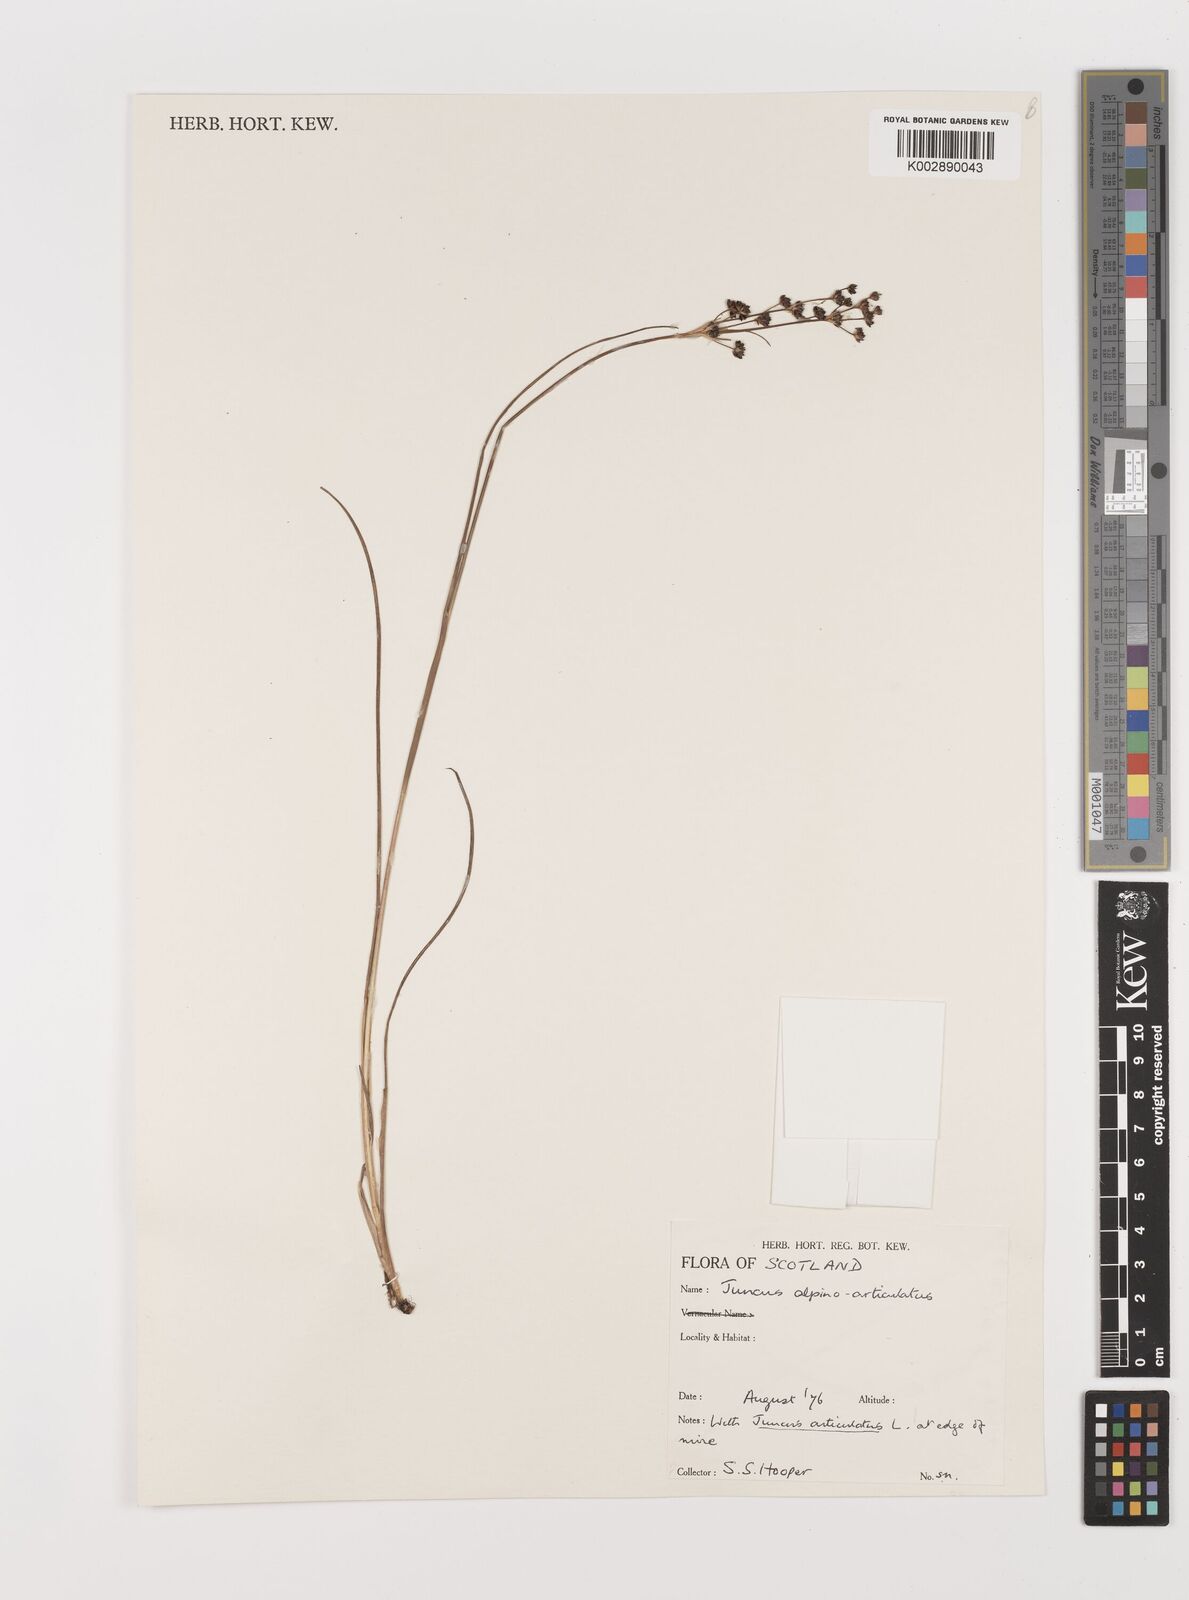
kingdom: Plantae
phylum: Tracheophyta
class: Liliopsida
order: Poales
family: Juncaceae
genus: Juncus
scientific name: Juncus articulatus
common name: Jointed rush
